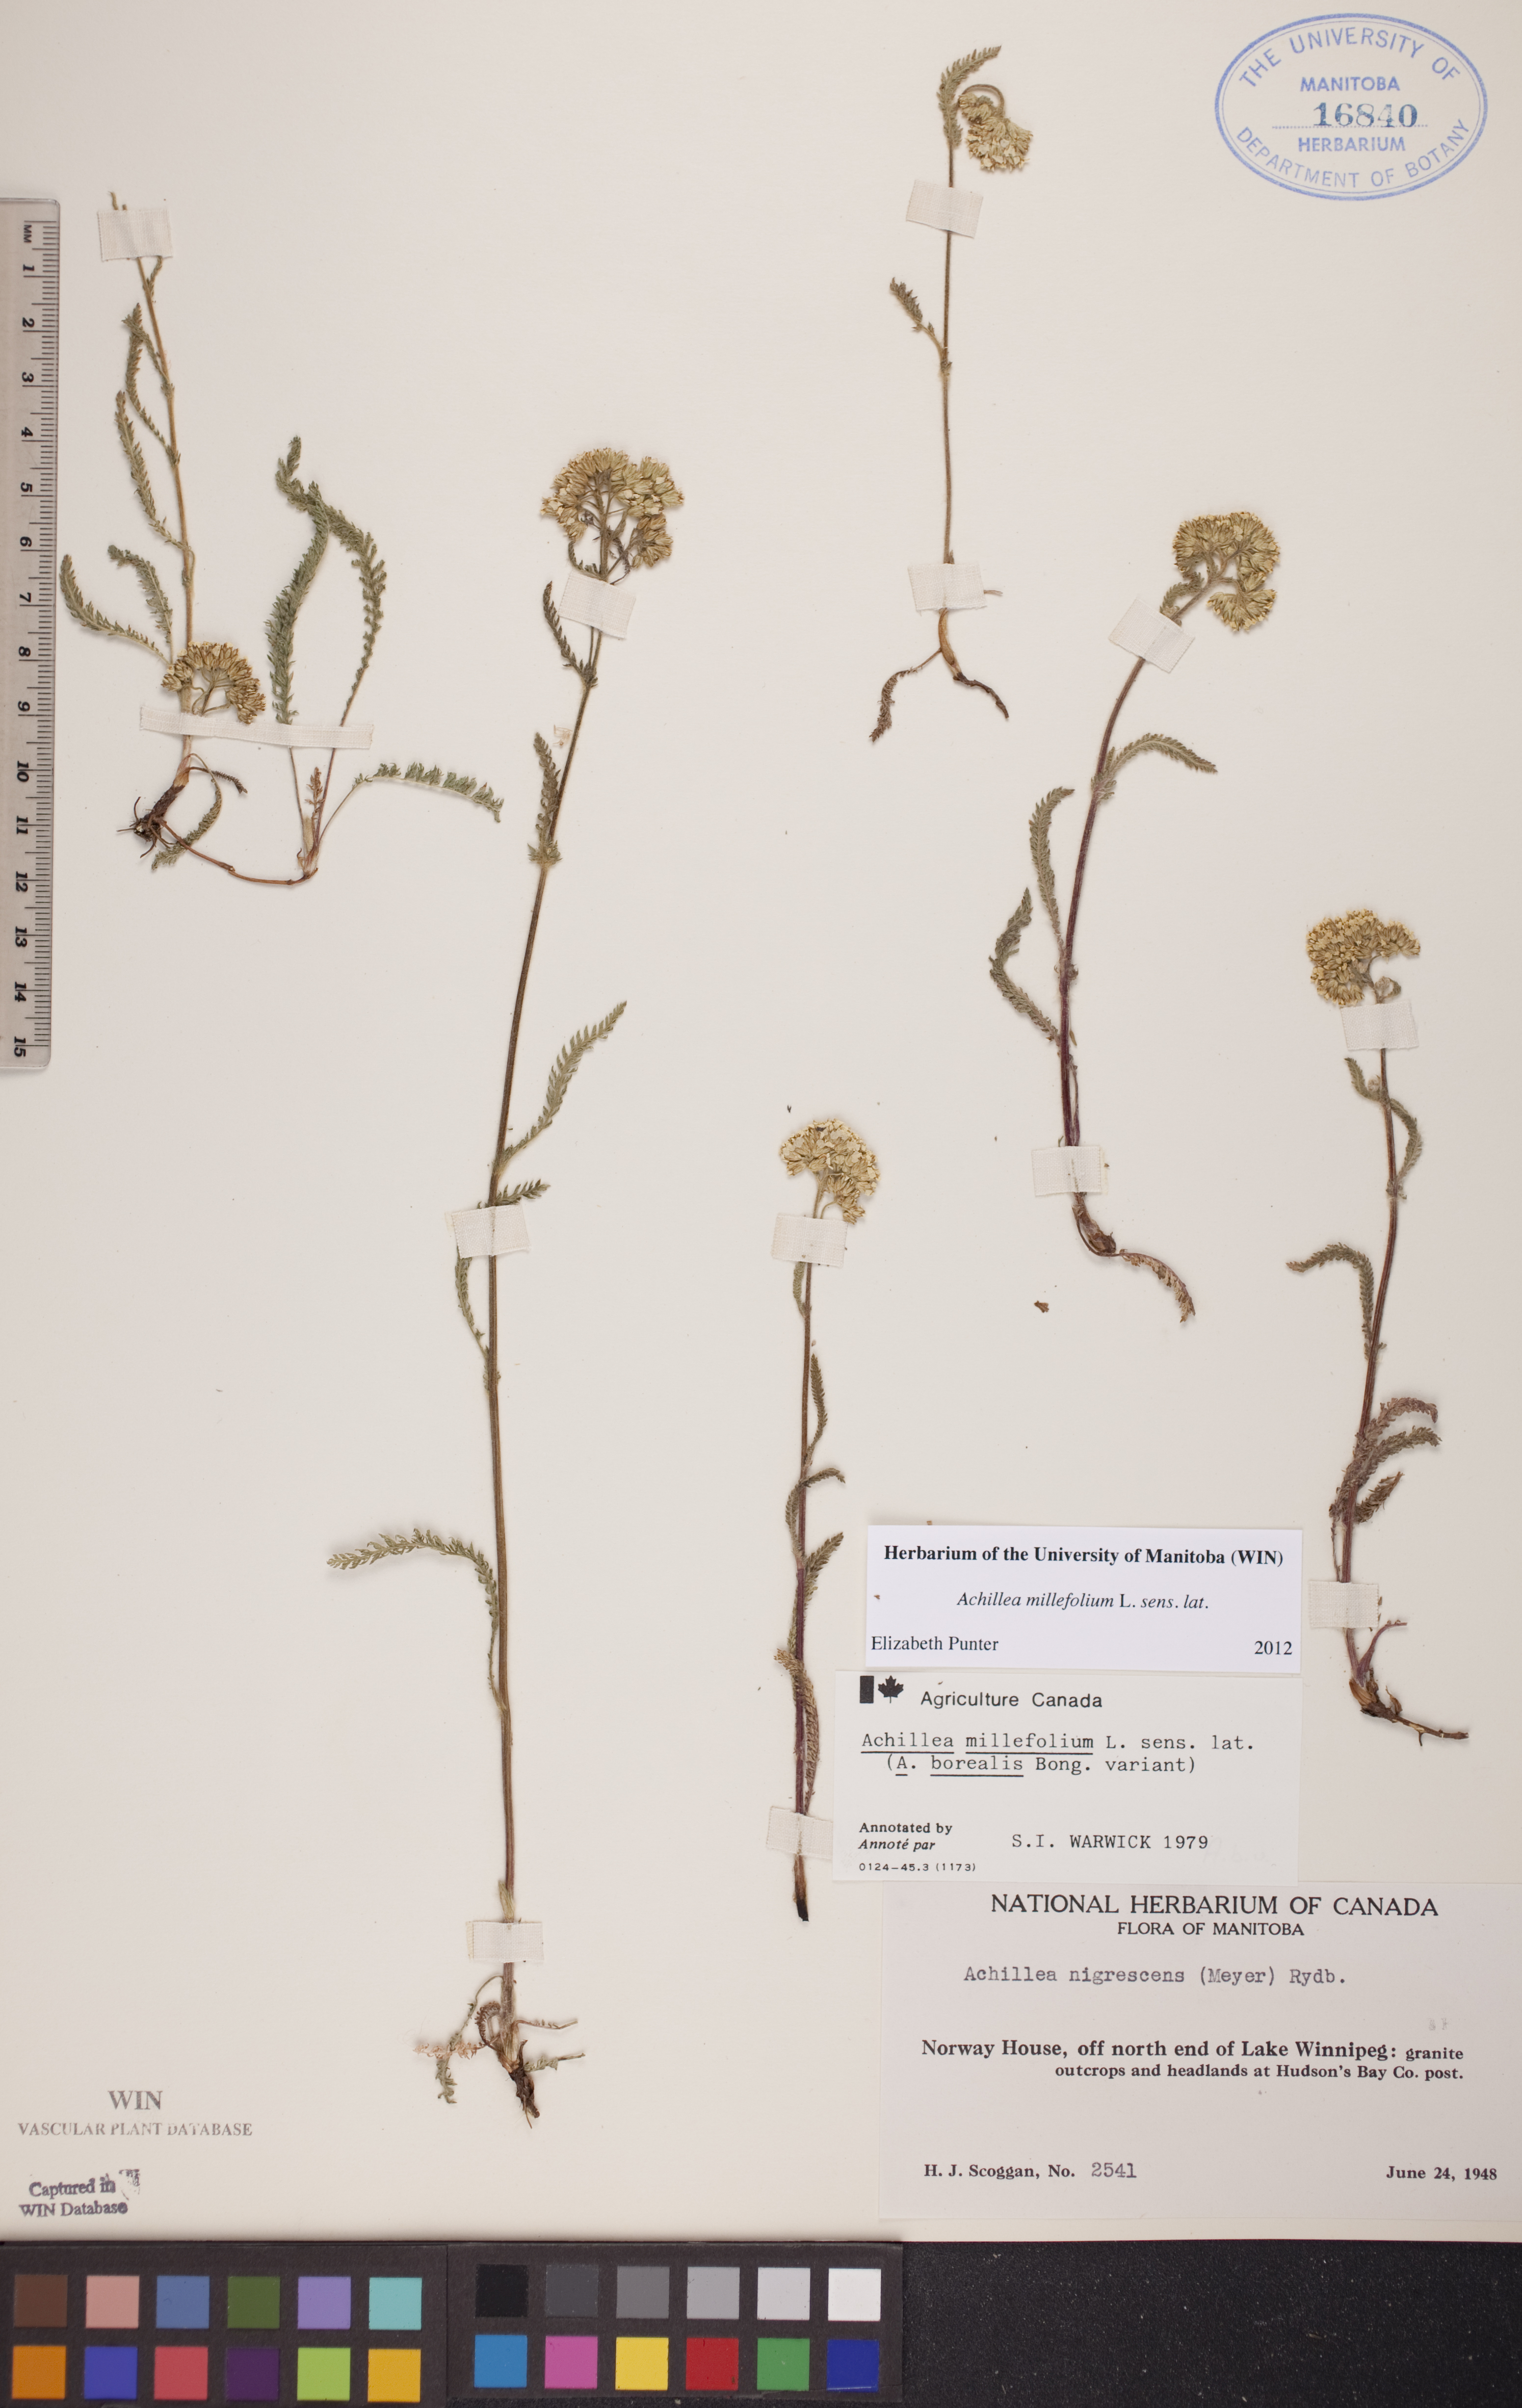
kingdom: Plantae
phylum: Tracheophyta
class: Magnoliopsida
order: Asterales
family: Asteraceae
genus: Achillea
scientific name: Achillea millefolium
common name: Yarrow
